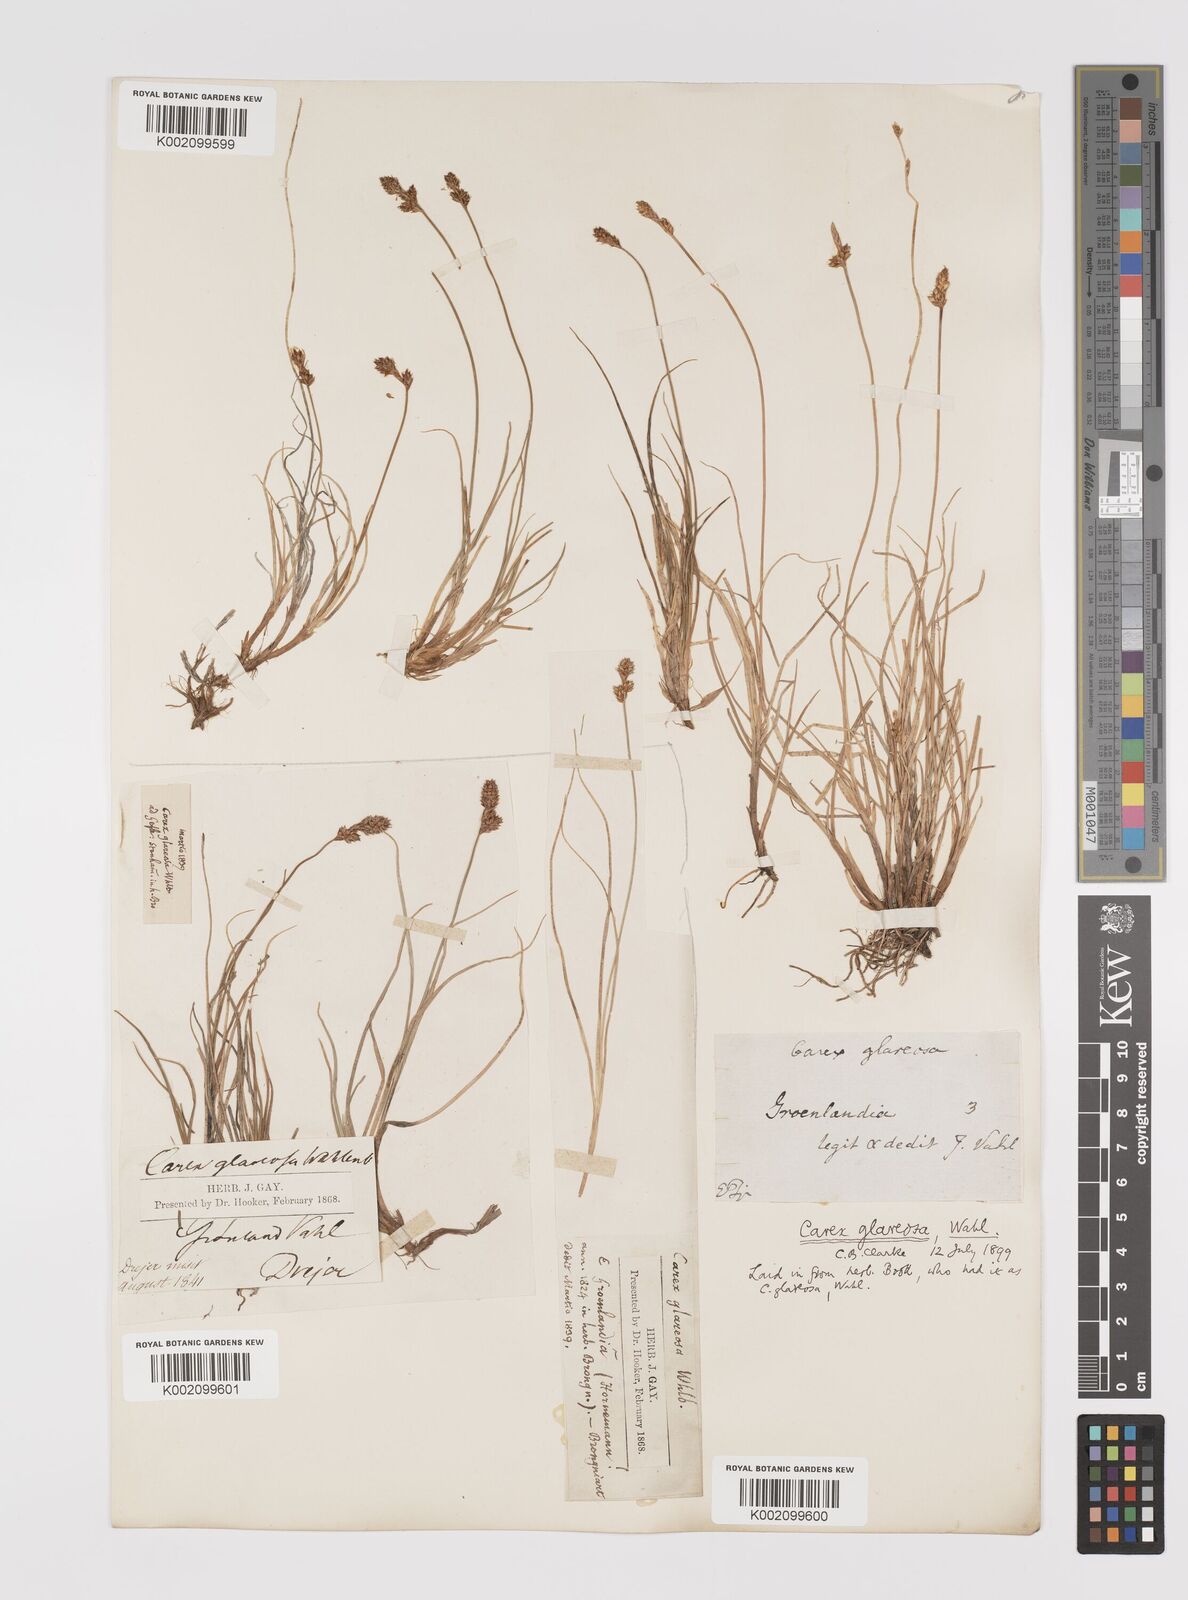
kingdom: Plantae
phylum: Tracheophyta
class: Liliopsida
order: Poales
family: Cyperaceae
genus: Carex
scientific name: Carex glareosa
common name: Clustered sedge
